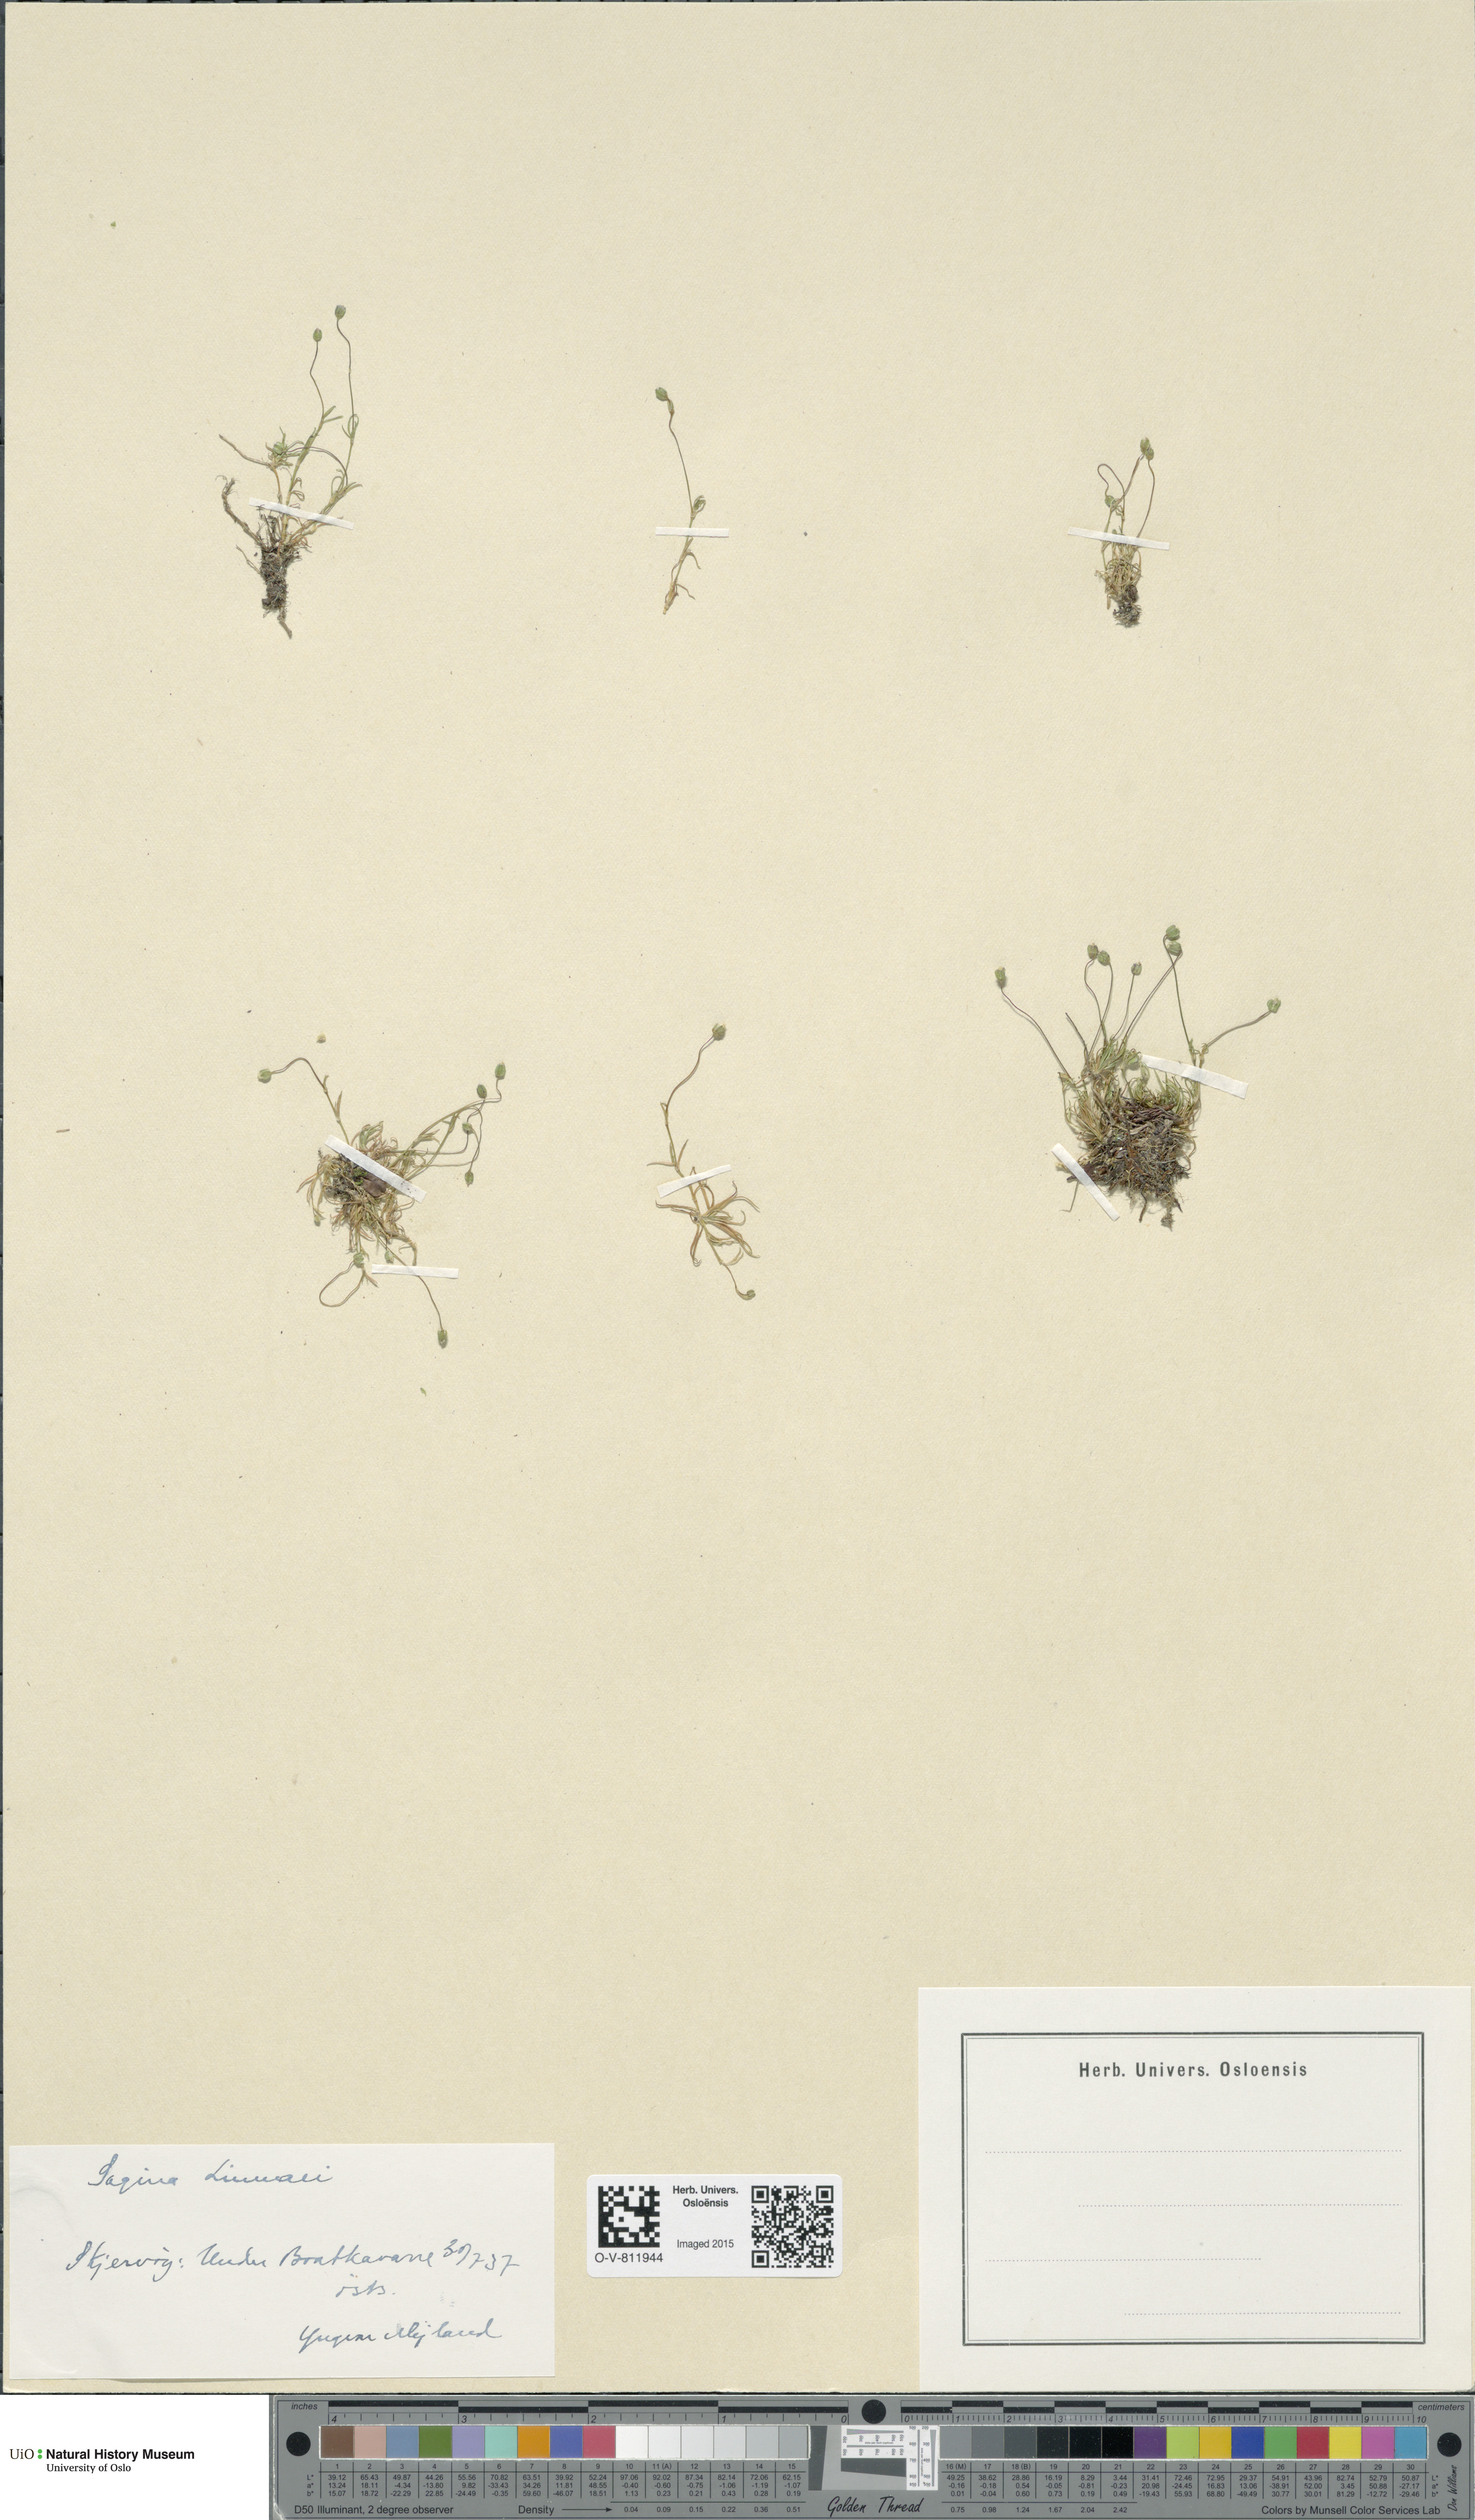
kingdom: Plantae
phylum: Tracheophyta
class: Magnoliopsida
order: Caryophyllales
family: Caryophyllaceae
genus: Sagina
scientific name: Sagina saginoides
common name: Alpine pearlwort
